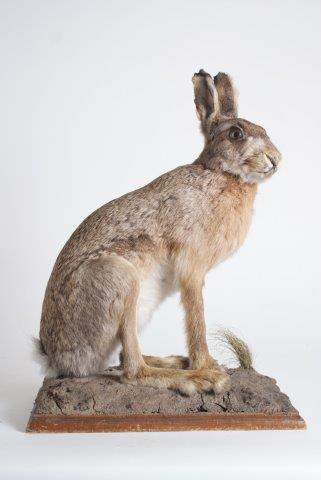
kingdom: Animalia
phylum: Chordata
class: Mammalia
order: Lagomorpha
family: Leporidae
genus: Lepus
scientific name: Lepus europaeus
